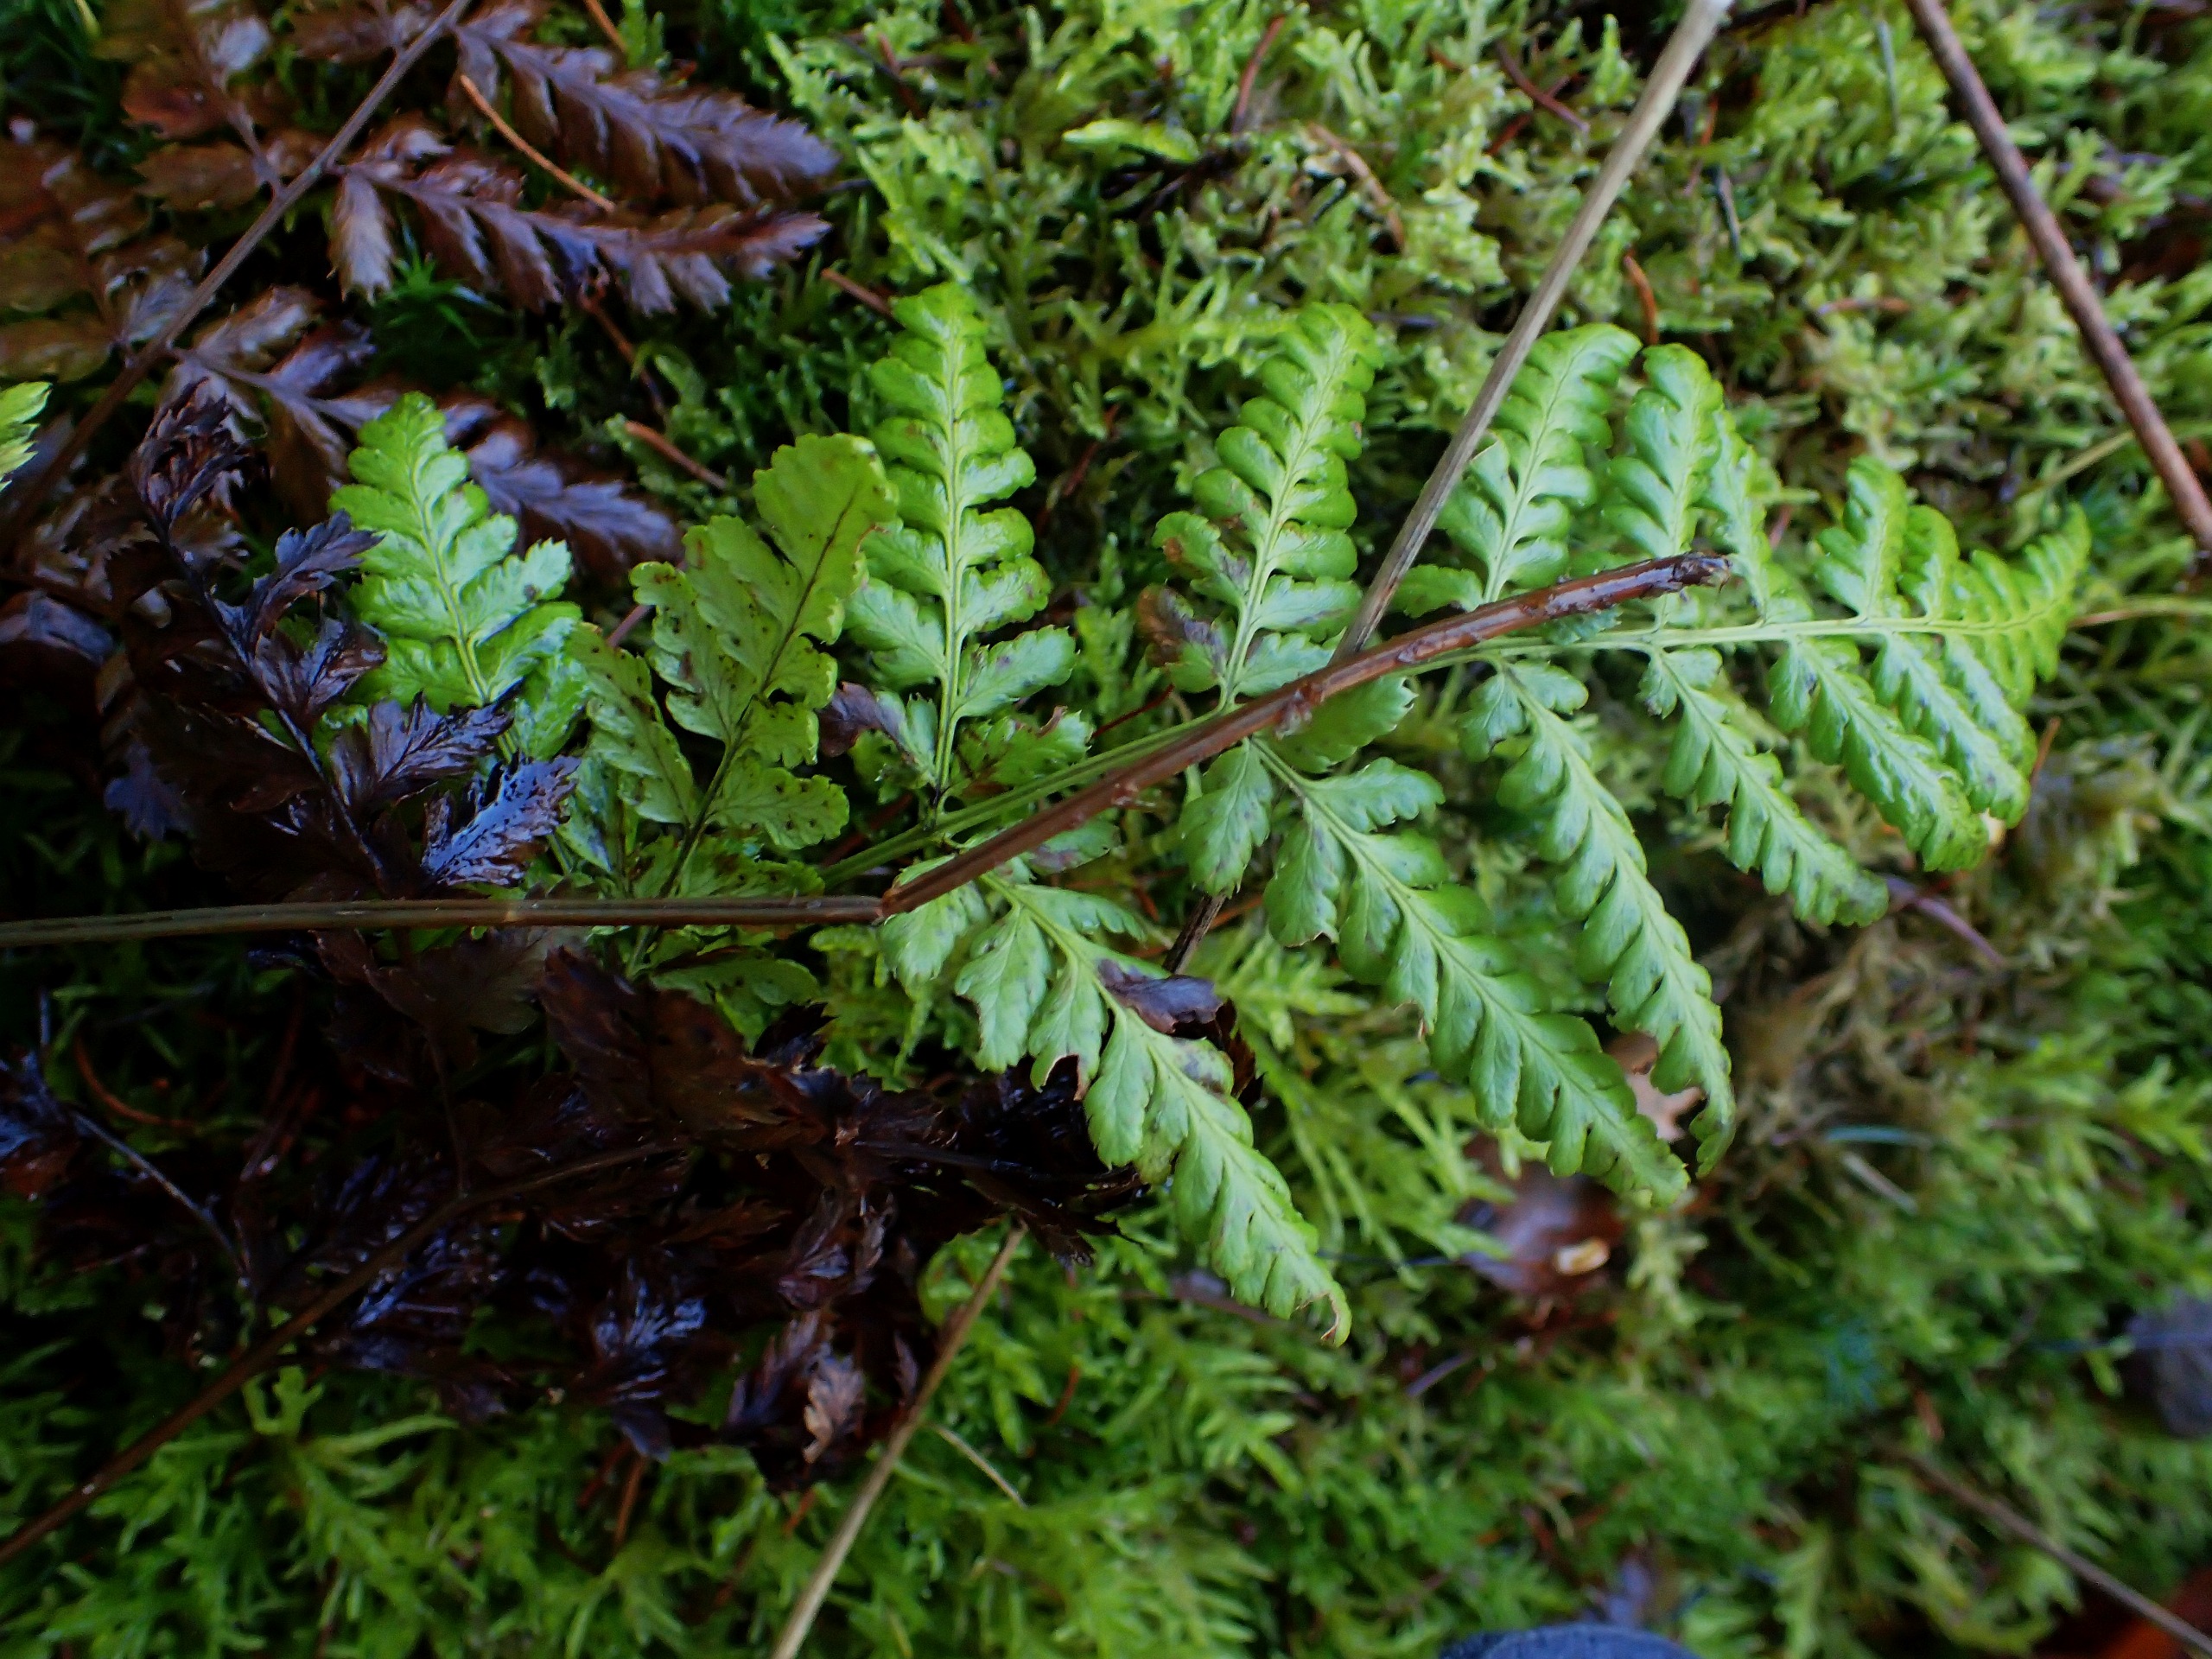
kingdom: Plantae
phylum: Tracheophyta
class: Polypodiopsida
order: Polypodiales
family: Dryopteridaceae
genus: Dryopteris
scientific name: Dryopteris carthusiana
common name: Smalbladet mangeløv
